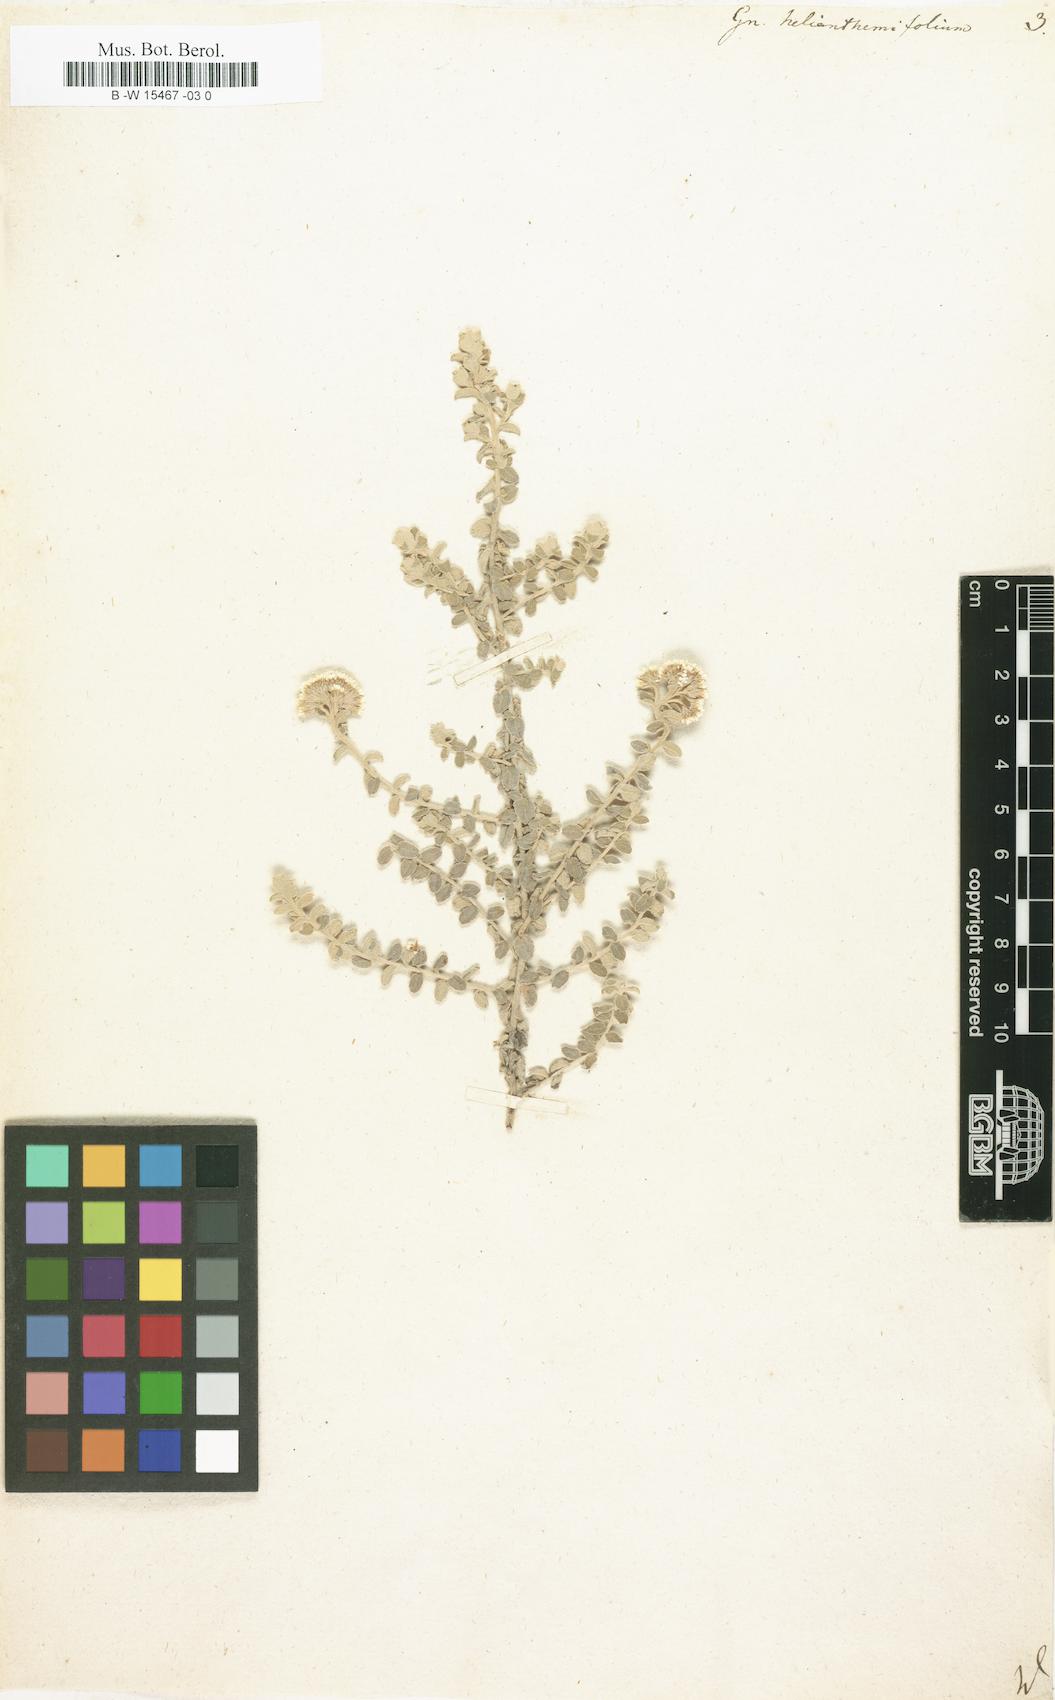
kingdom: Plantae
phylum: Tracheophyta
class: Magnoliopsida
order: Asterales
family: Asteraceae
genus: Helichrysum
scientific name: Helichrysum helianthemifolium
